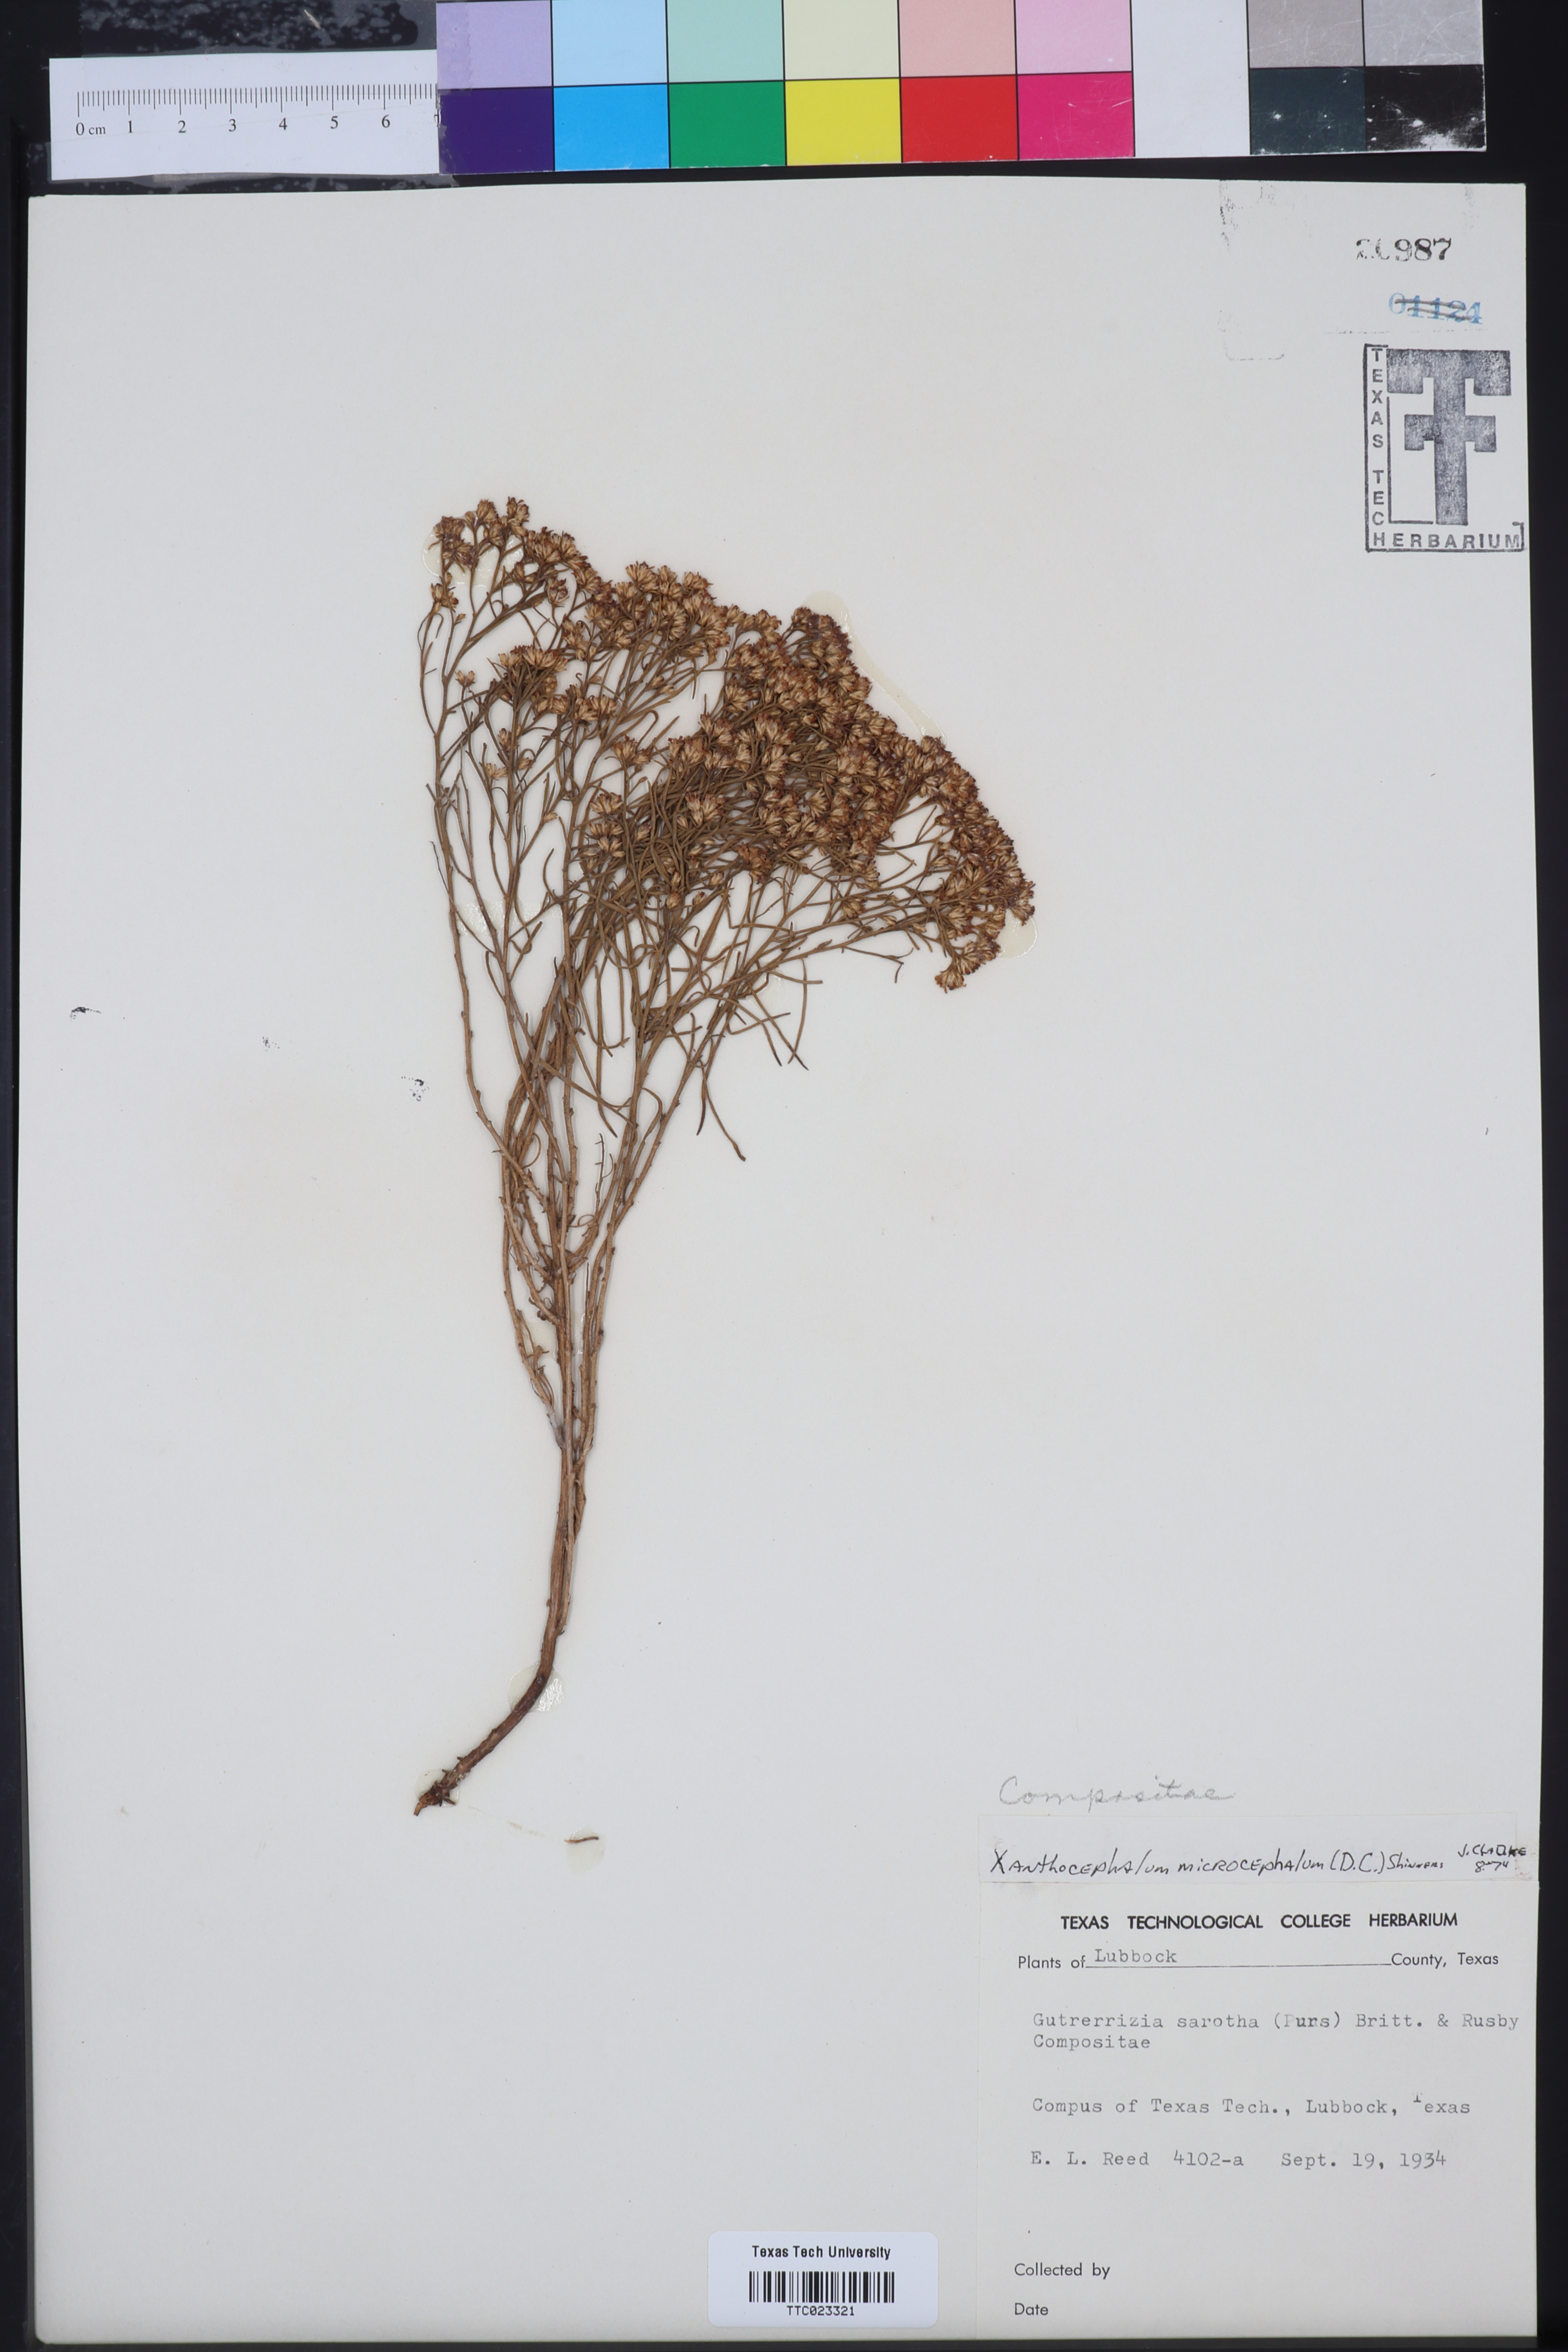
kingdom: Plantae
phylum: Tracheophyta
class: Magnoliopsida
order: Asterales
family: Asteraceae
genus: Gutierrezia
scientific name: Gutierrezia microcephala
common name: Thread snakeweed
